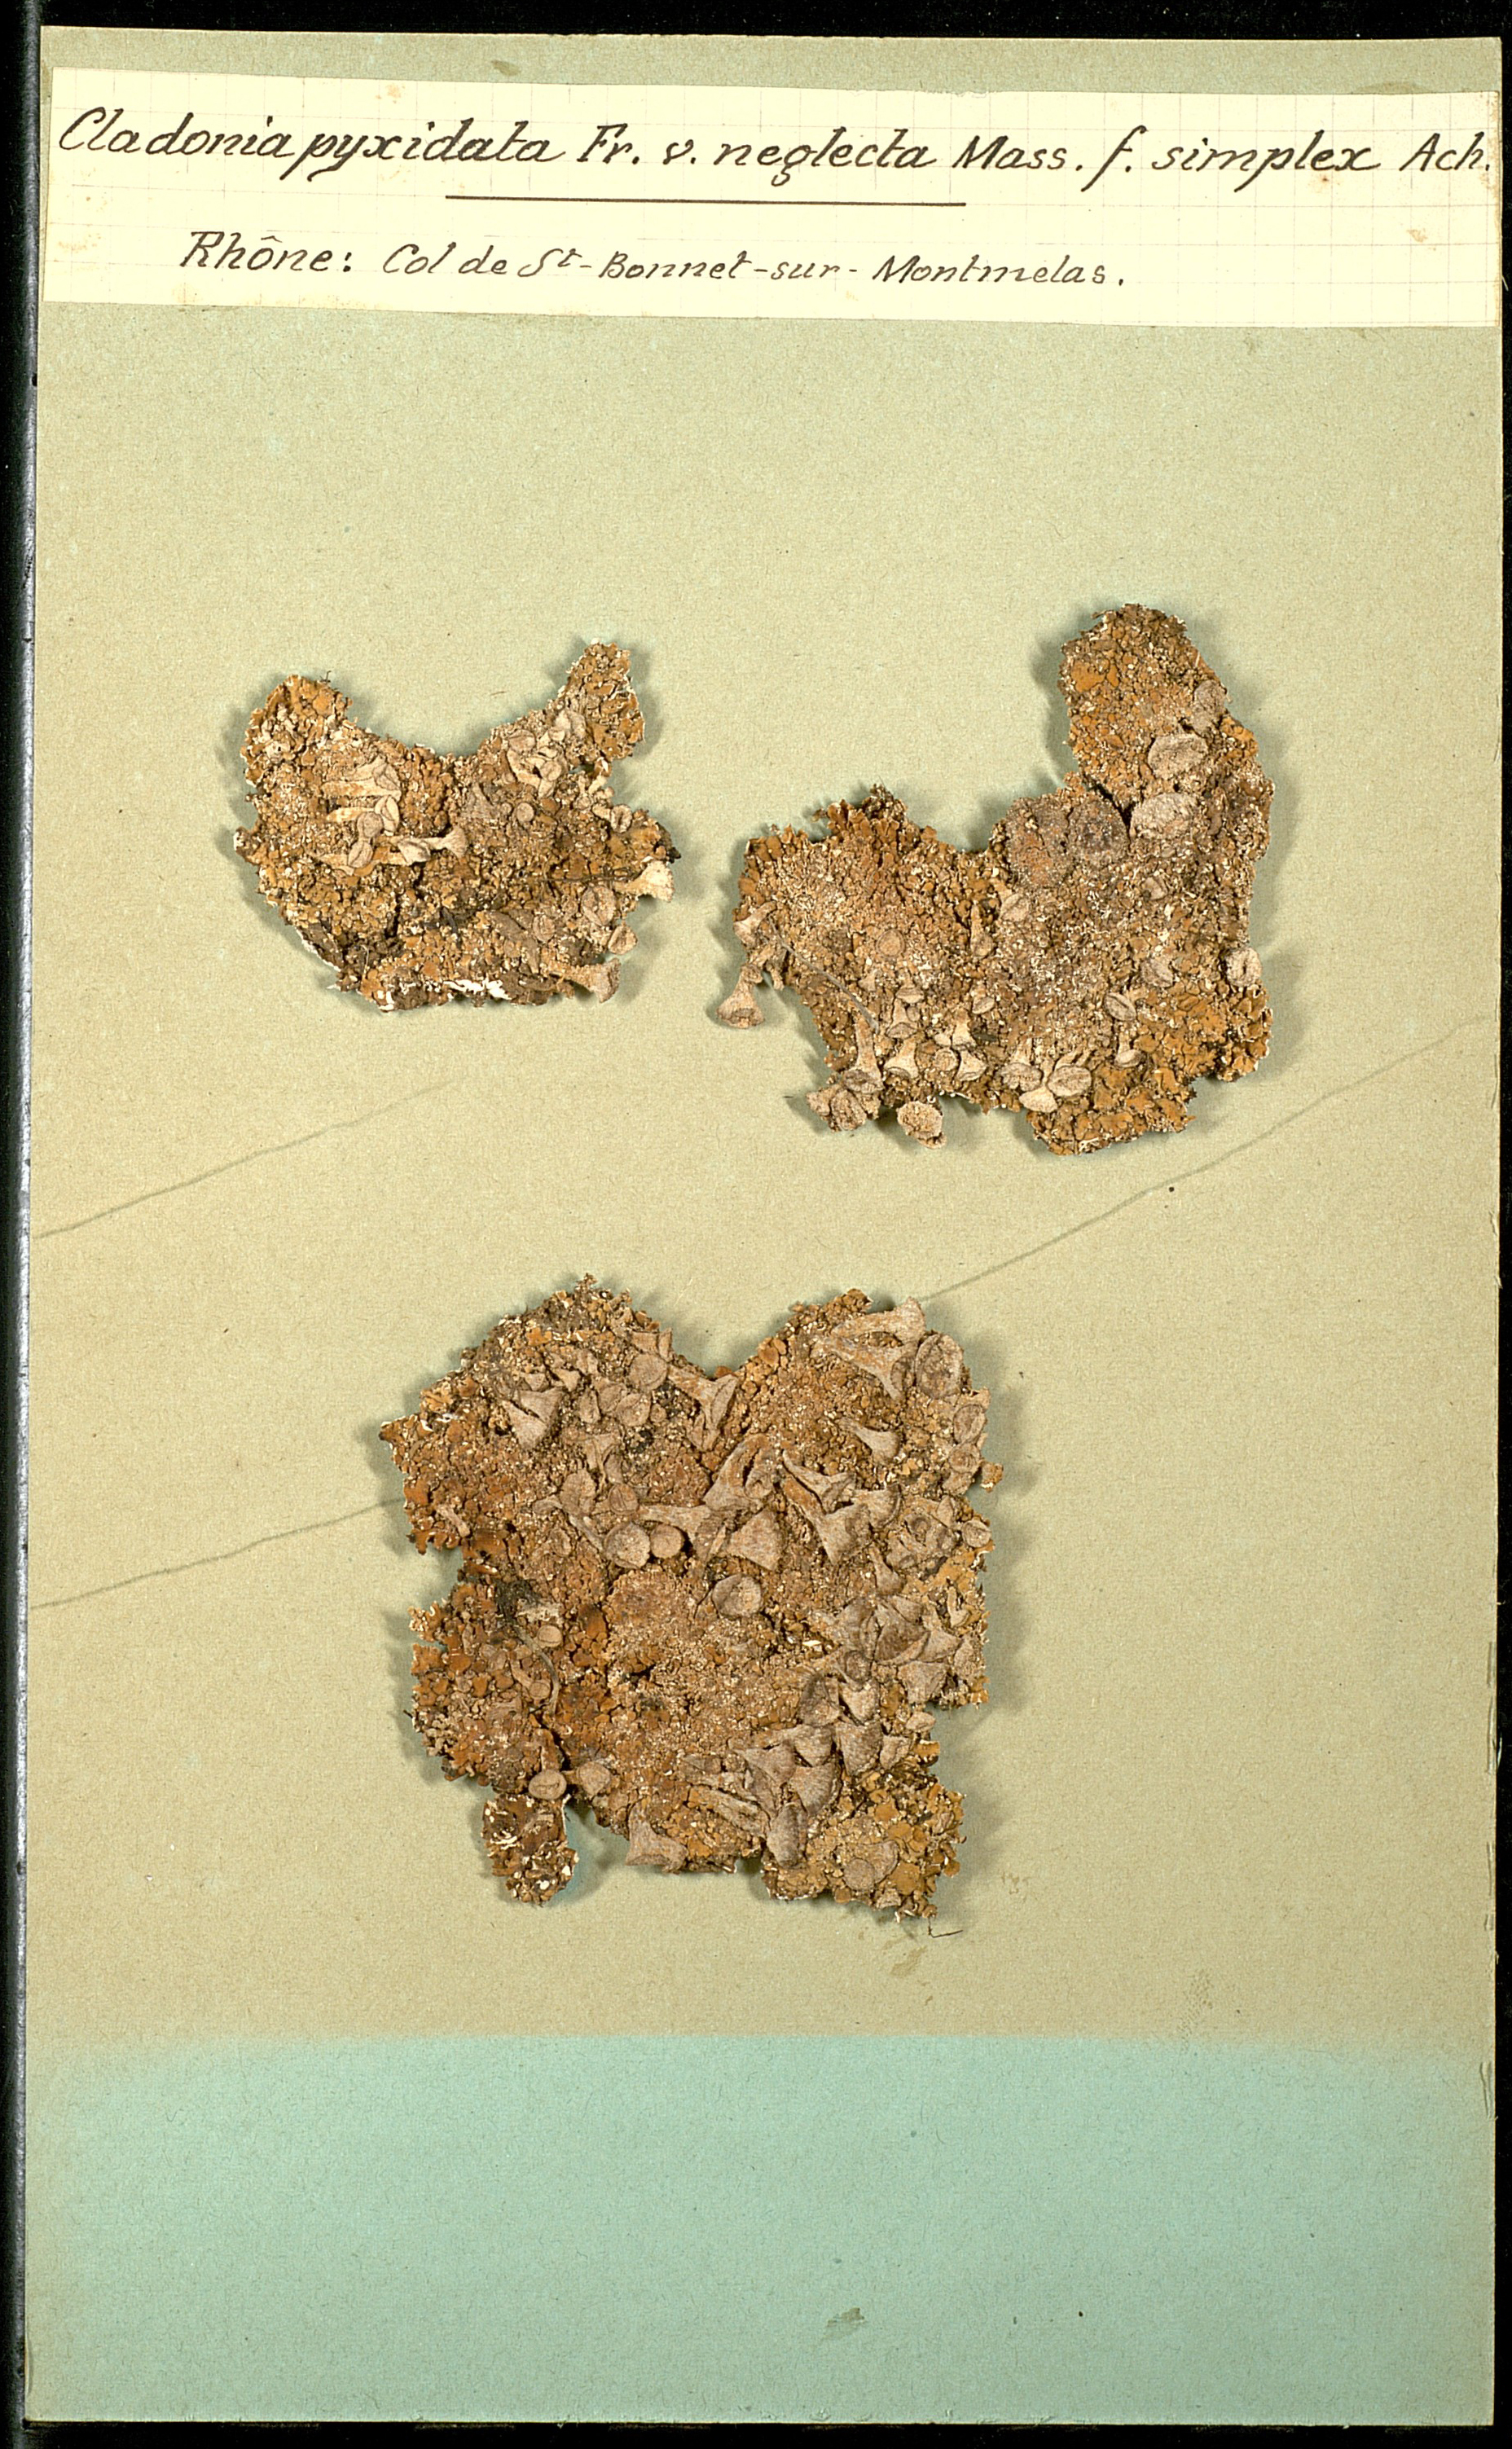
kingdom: Fungi
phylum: Ascomycota
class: Lecanoromycetes
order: Lecanorales
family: Cladoniaceae
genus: Cladonia
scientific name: Cladonia pyxidata
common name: Pebbled pixie cup
